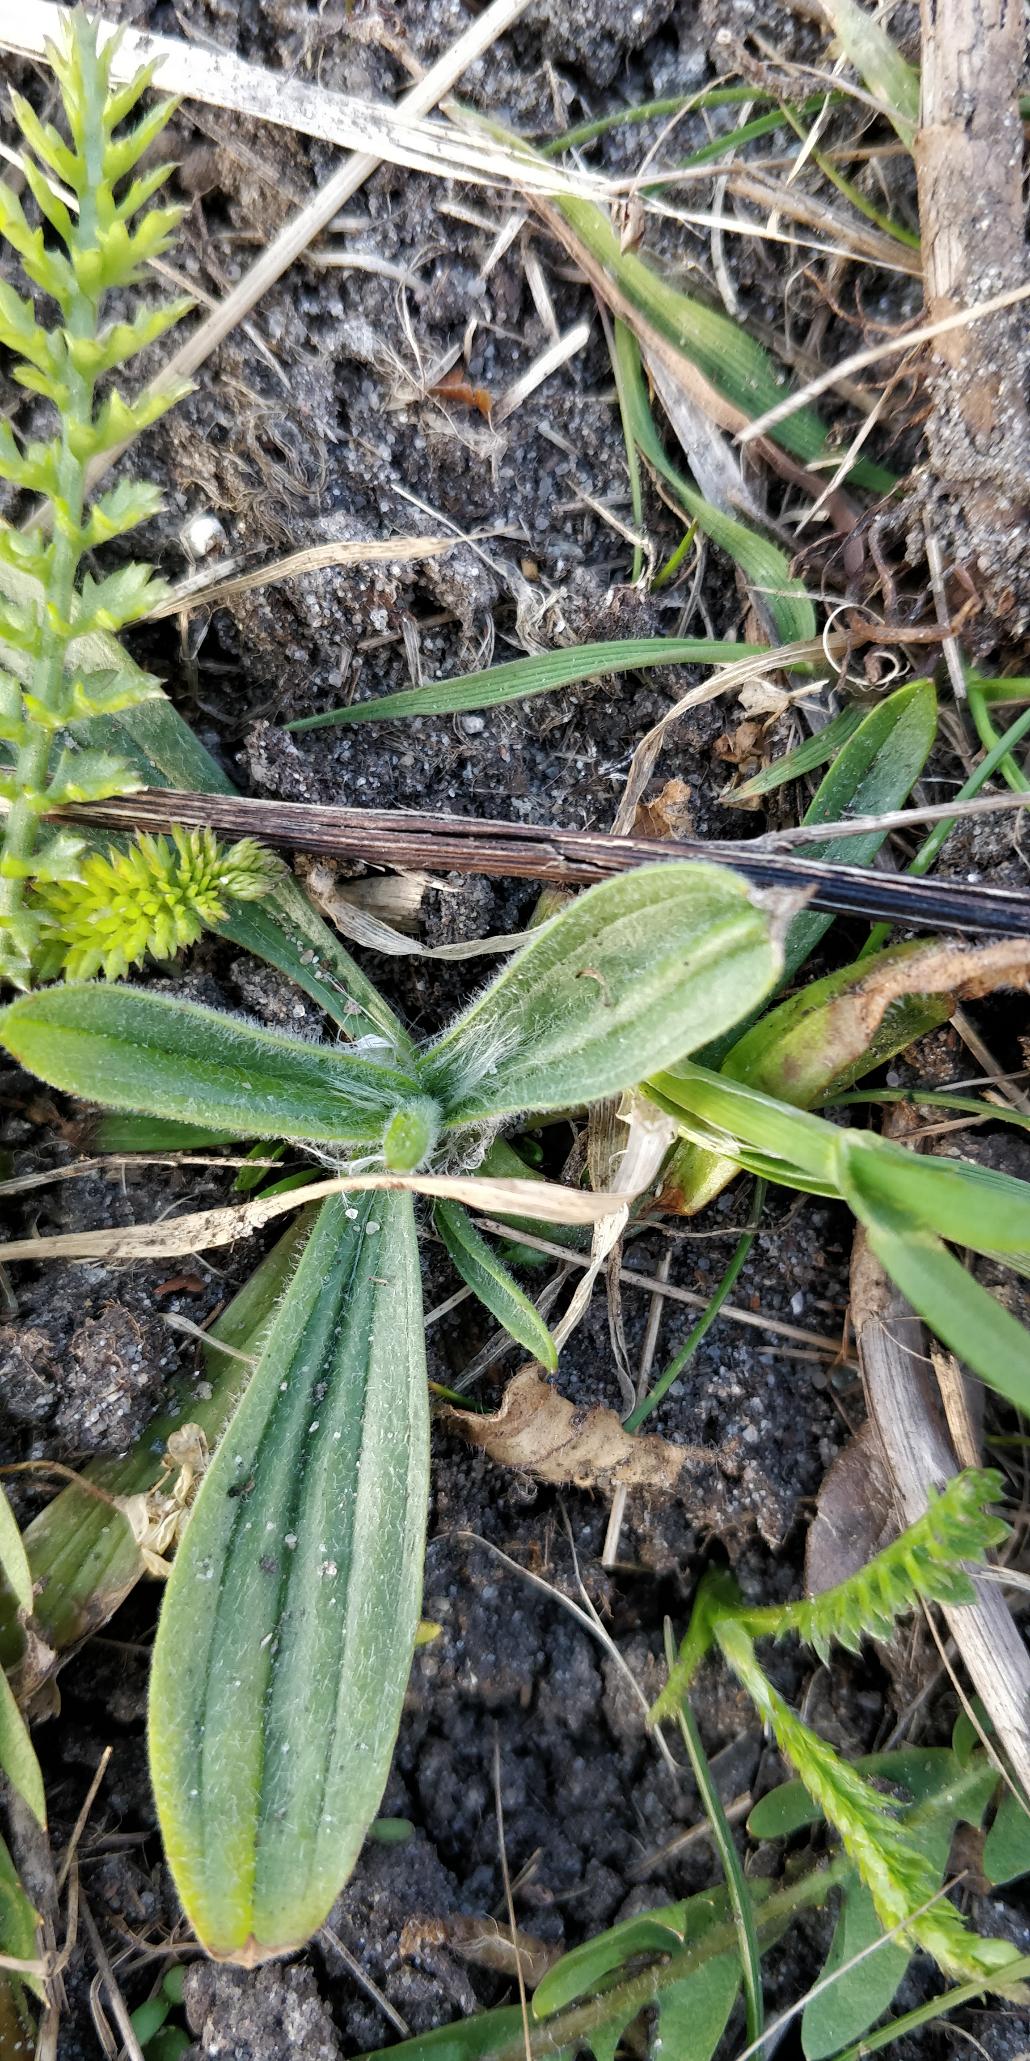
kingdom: Plantae
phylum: Tracheophyta
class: Magnoliopsida
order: Lamiales
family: Plantaginaceae
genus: Plantago
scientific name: Plantago lanceolata
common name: Lancet-vejbred
